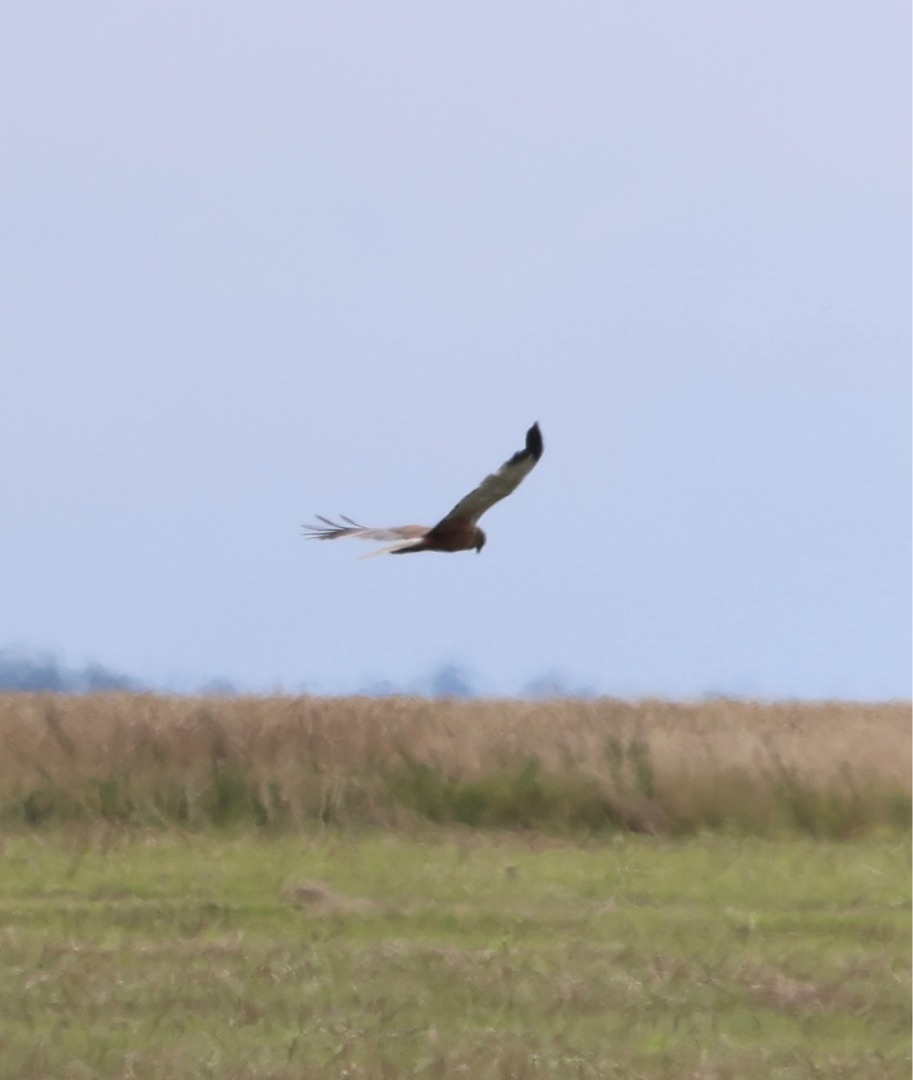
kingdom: Animalia
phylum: Chordata
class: Aves
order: Accipitriformes
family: Accipitridae
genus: Circus
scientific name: Circus aeruginosus
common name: Rørhøg
